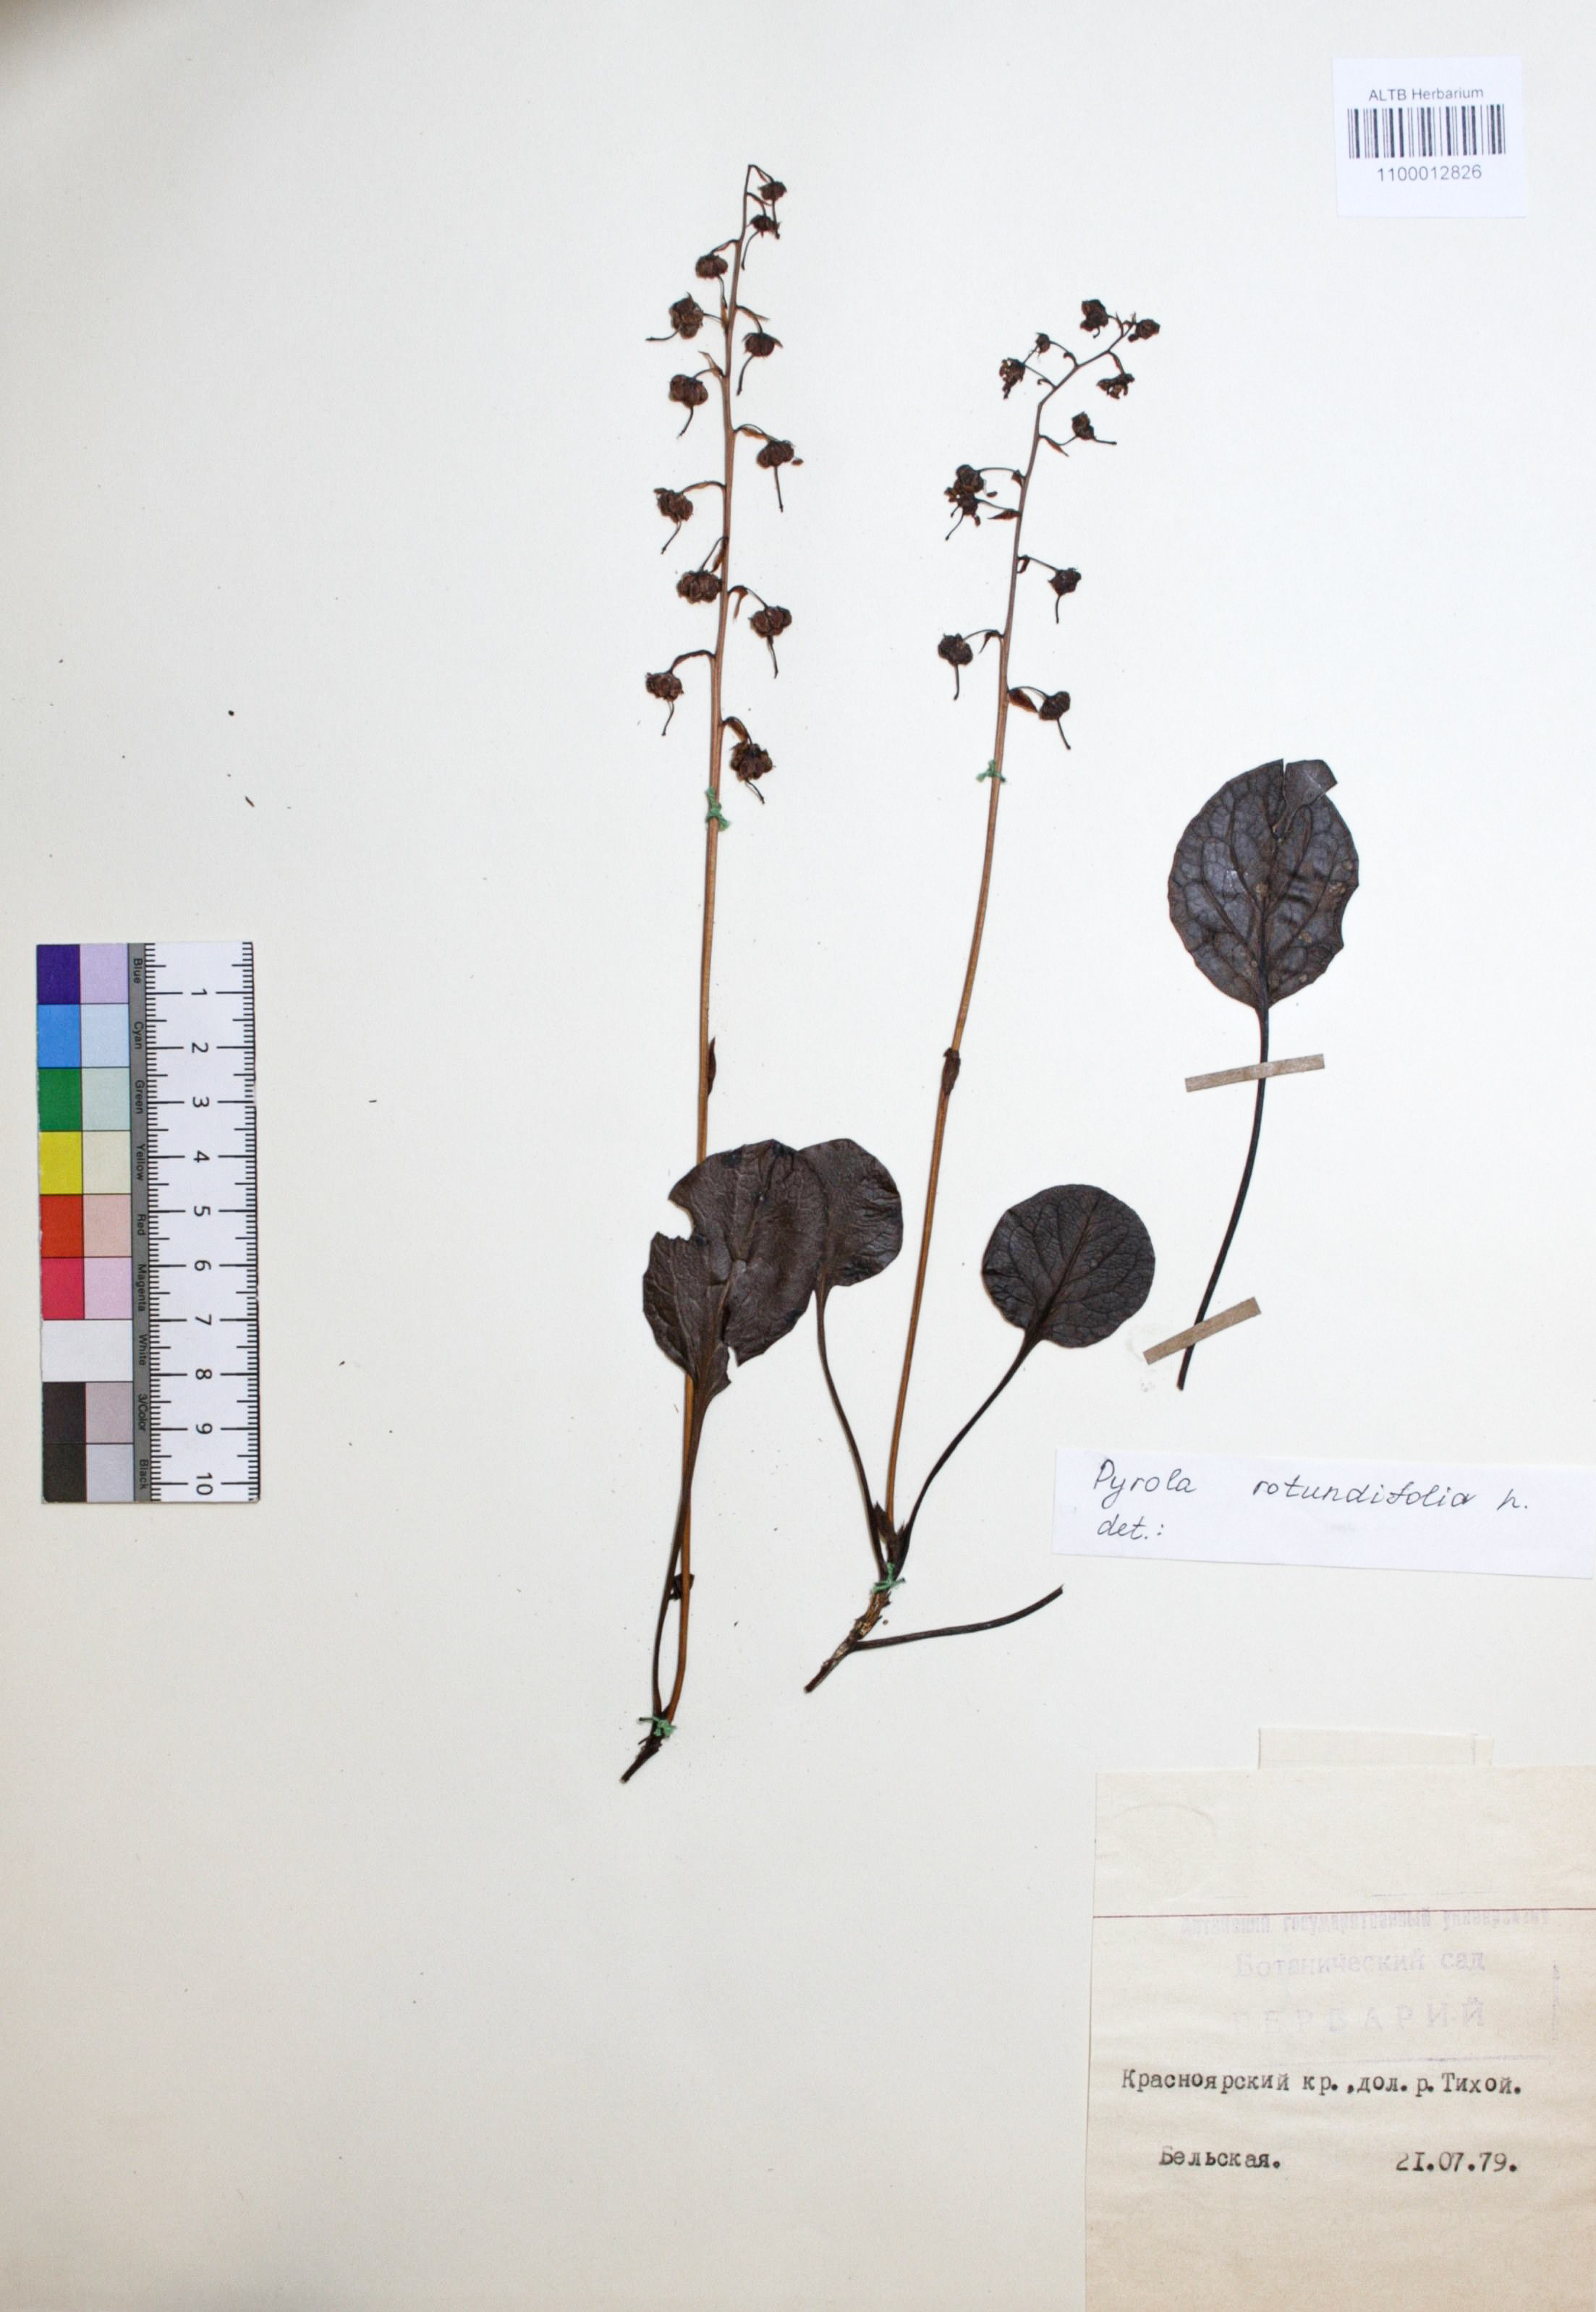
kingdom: Plantae
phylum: Tracheophyta
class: Magnoliopsida
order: Ericales
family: Ericaceae
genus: Pyrola
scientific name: Pyrola rotundifolia
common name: Round-leaved wintergreen
